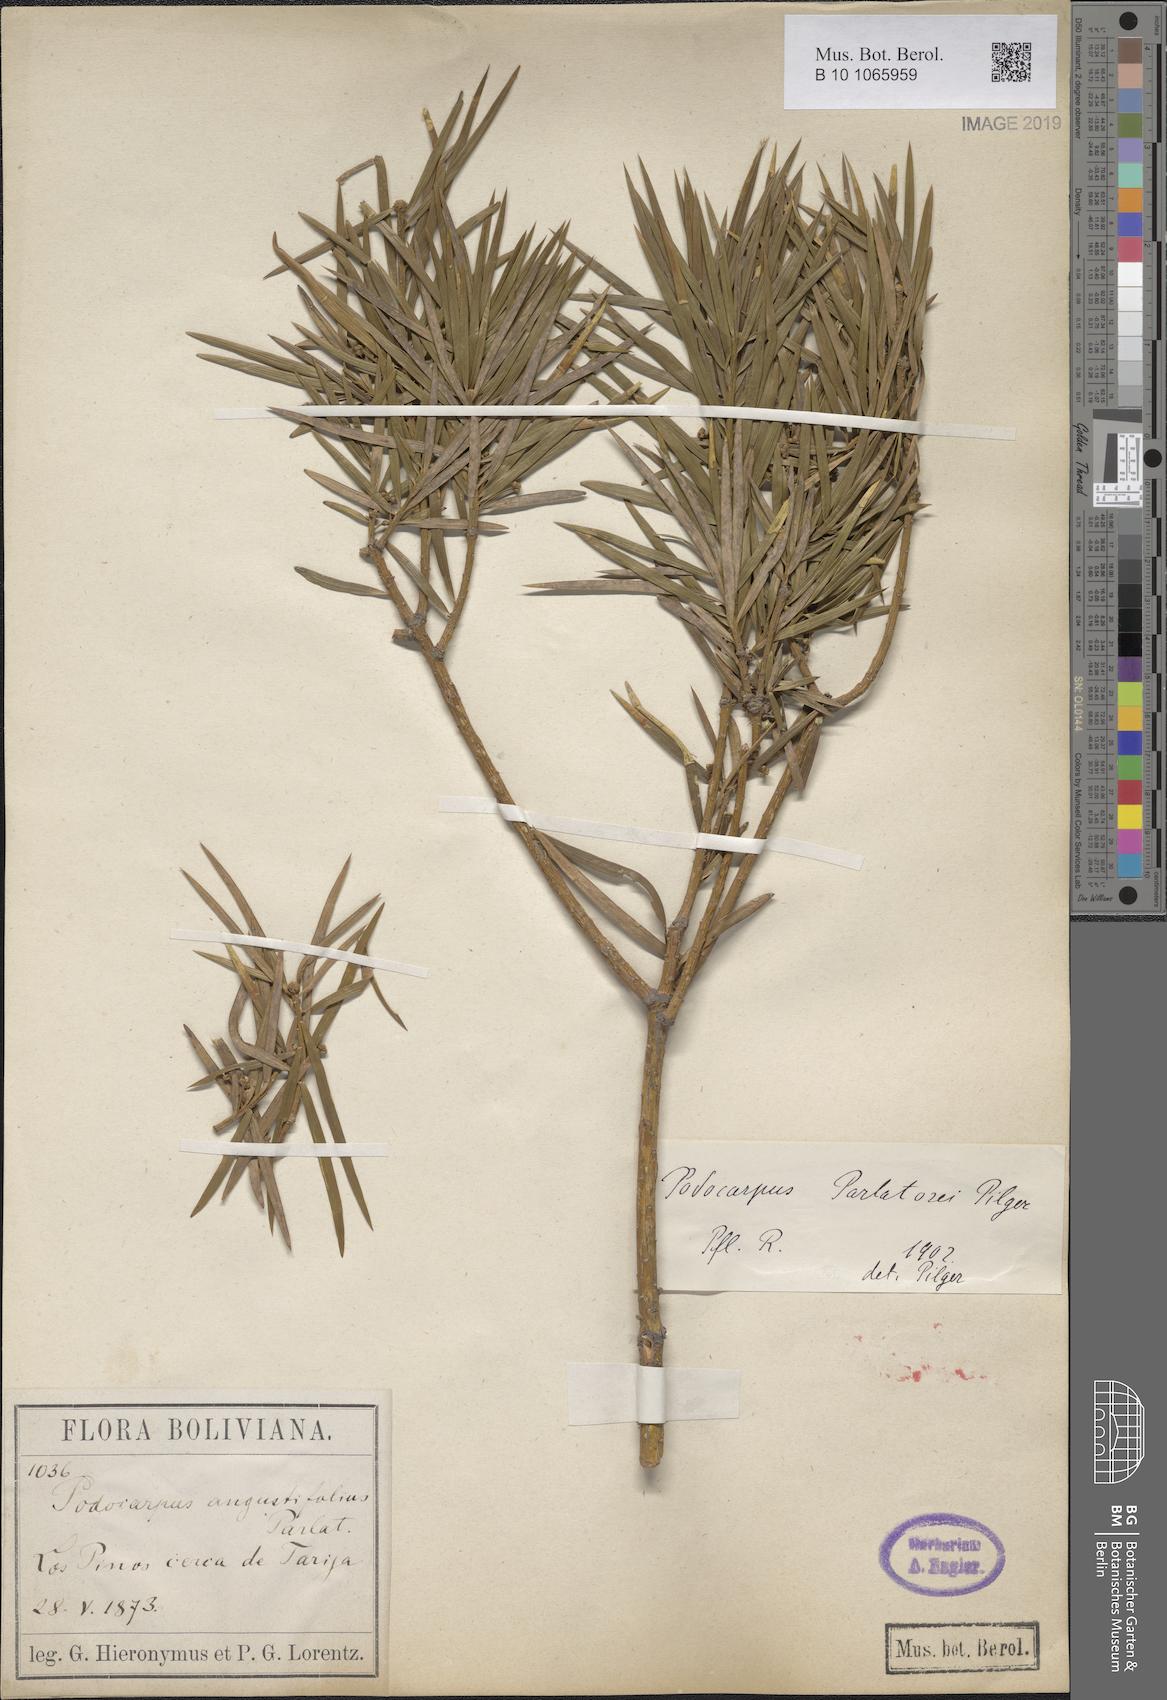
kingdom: Plantae
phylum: Tracheophyta
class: Pinopsida
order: Pinales
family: Podocarpaceae
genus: Podocarpus
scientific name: Podocarpus parlatorei
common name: Pino blanco
